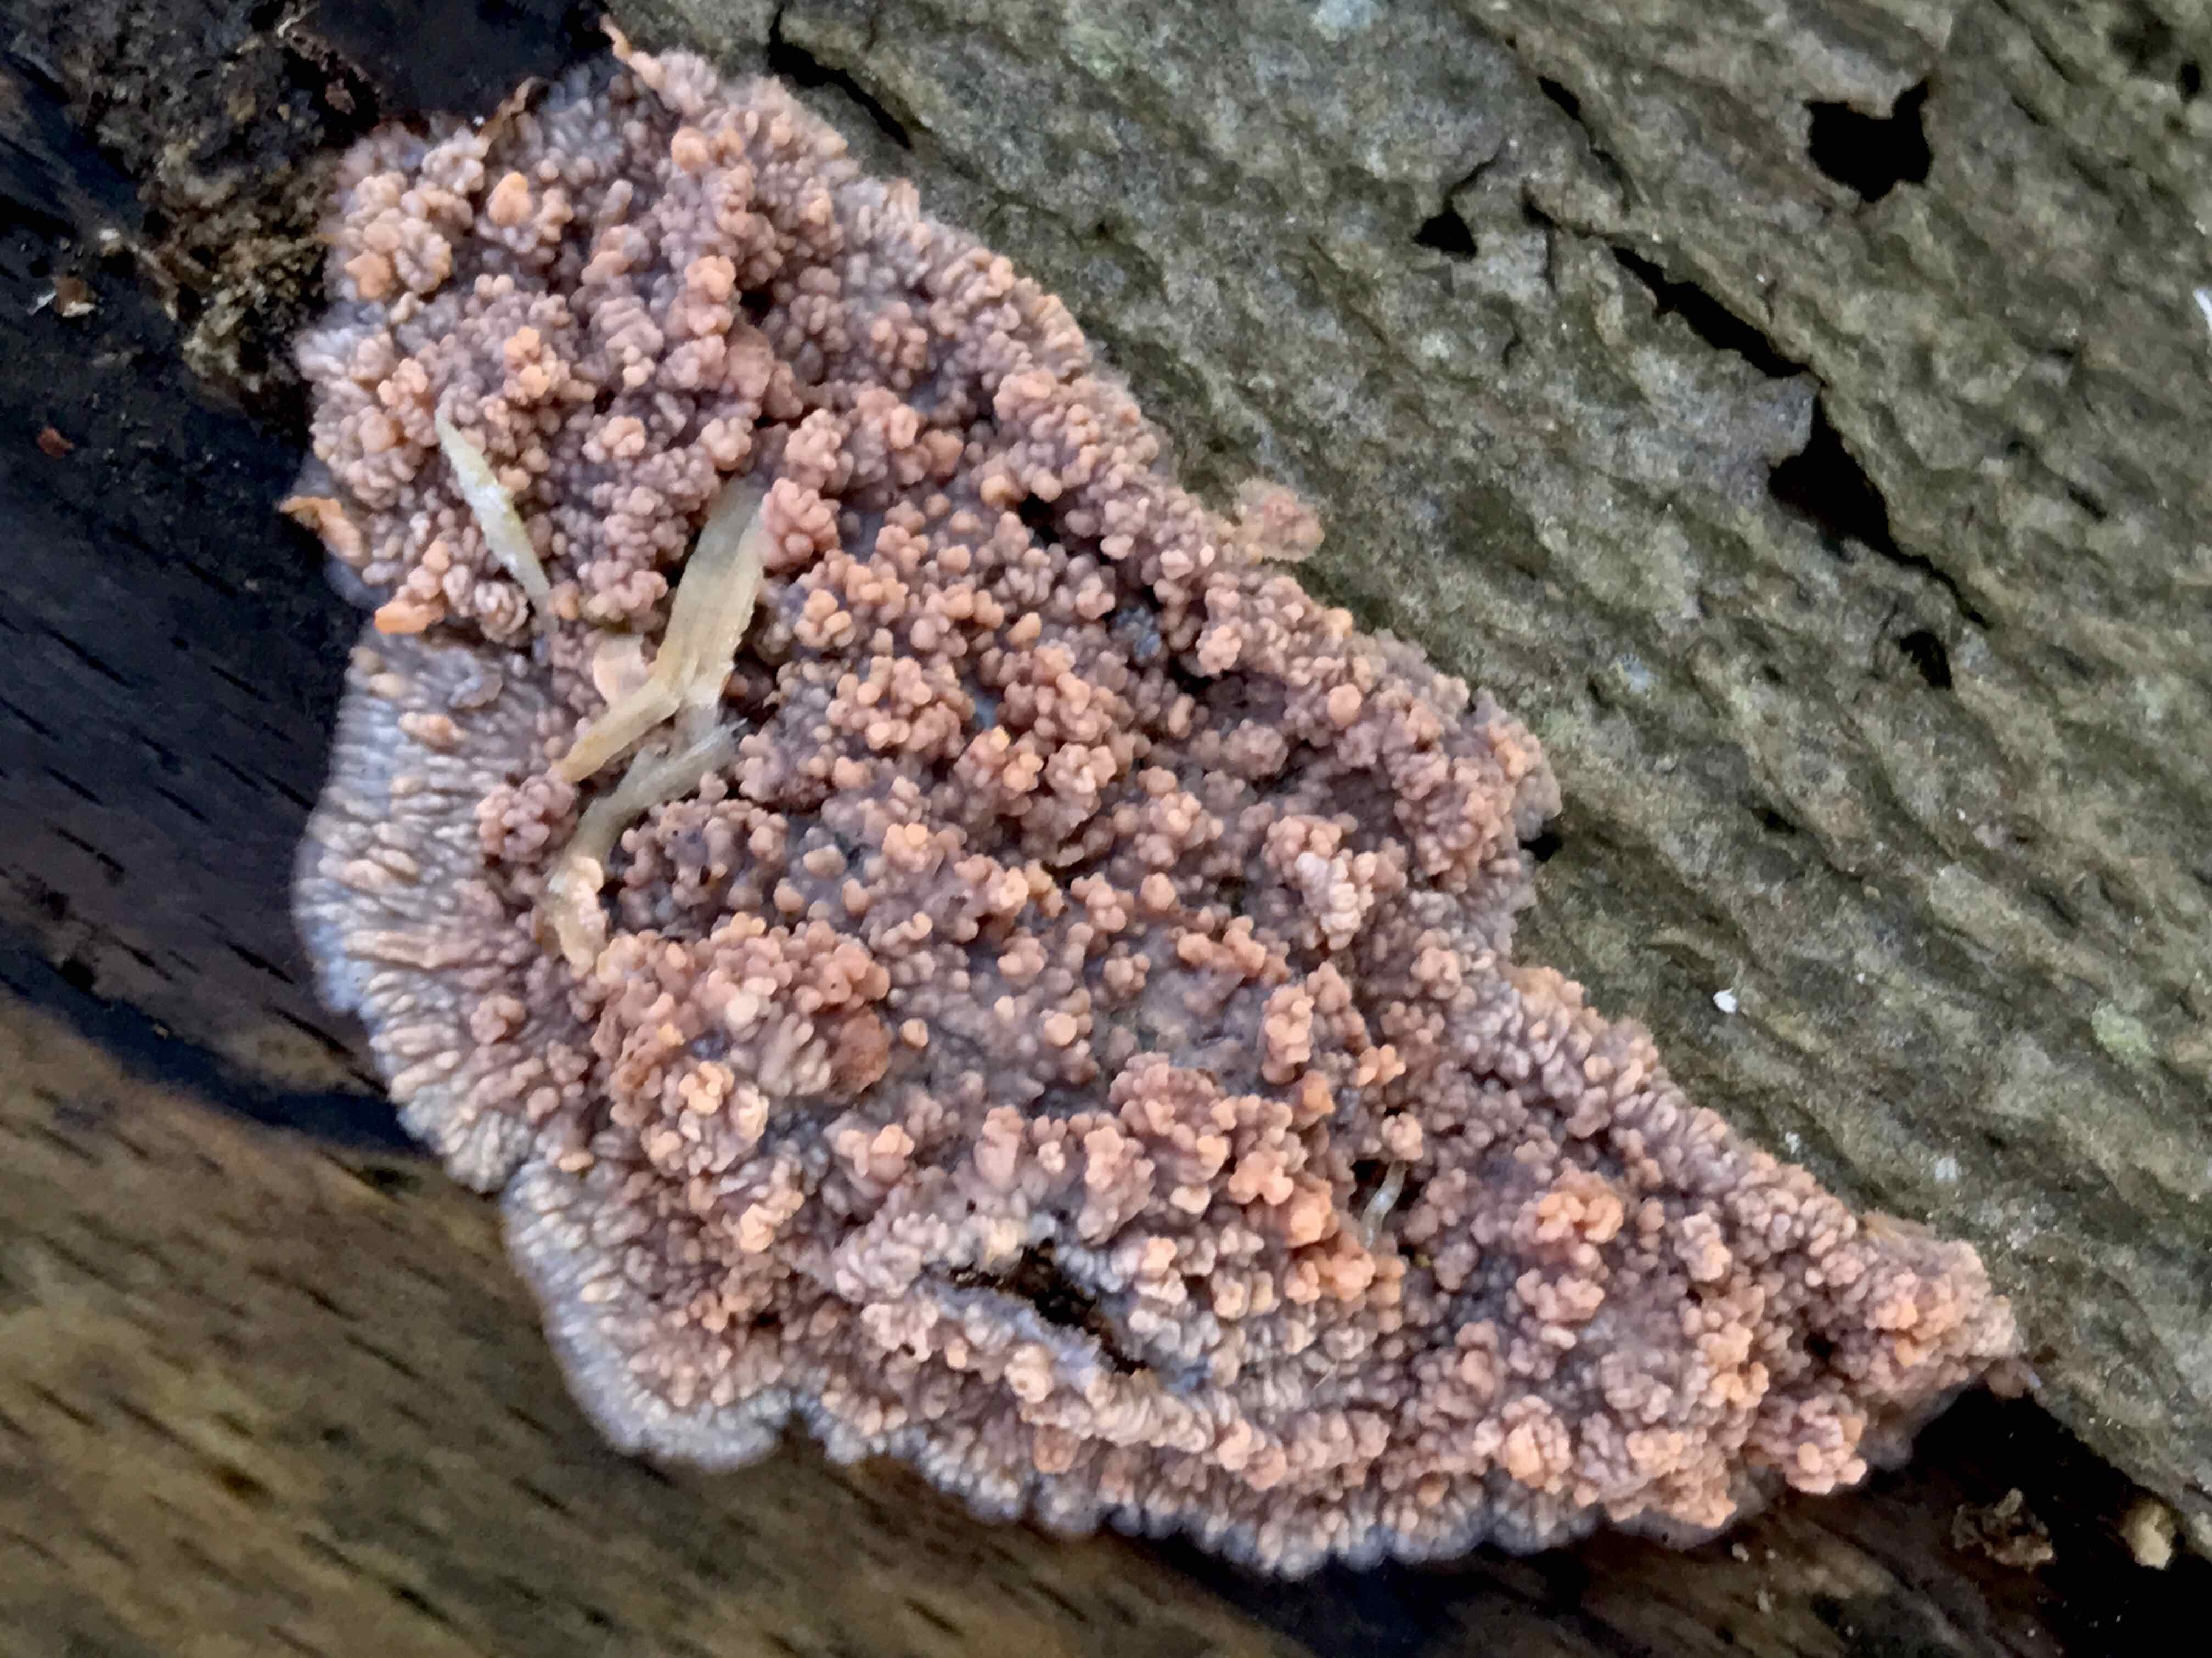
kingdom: Fungi
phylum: Basidiomycota
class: Agaricomycetes
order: Polyporales
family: Meruliaceae
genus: Phlebia
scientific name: Phlebia radiata
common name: stråle-åresvamp
